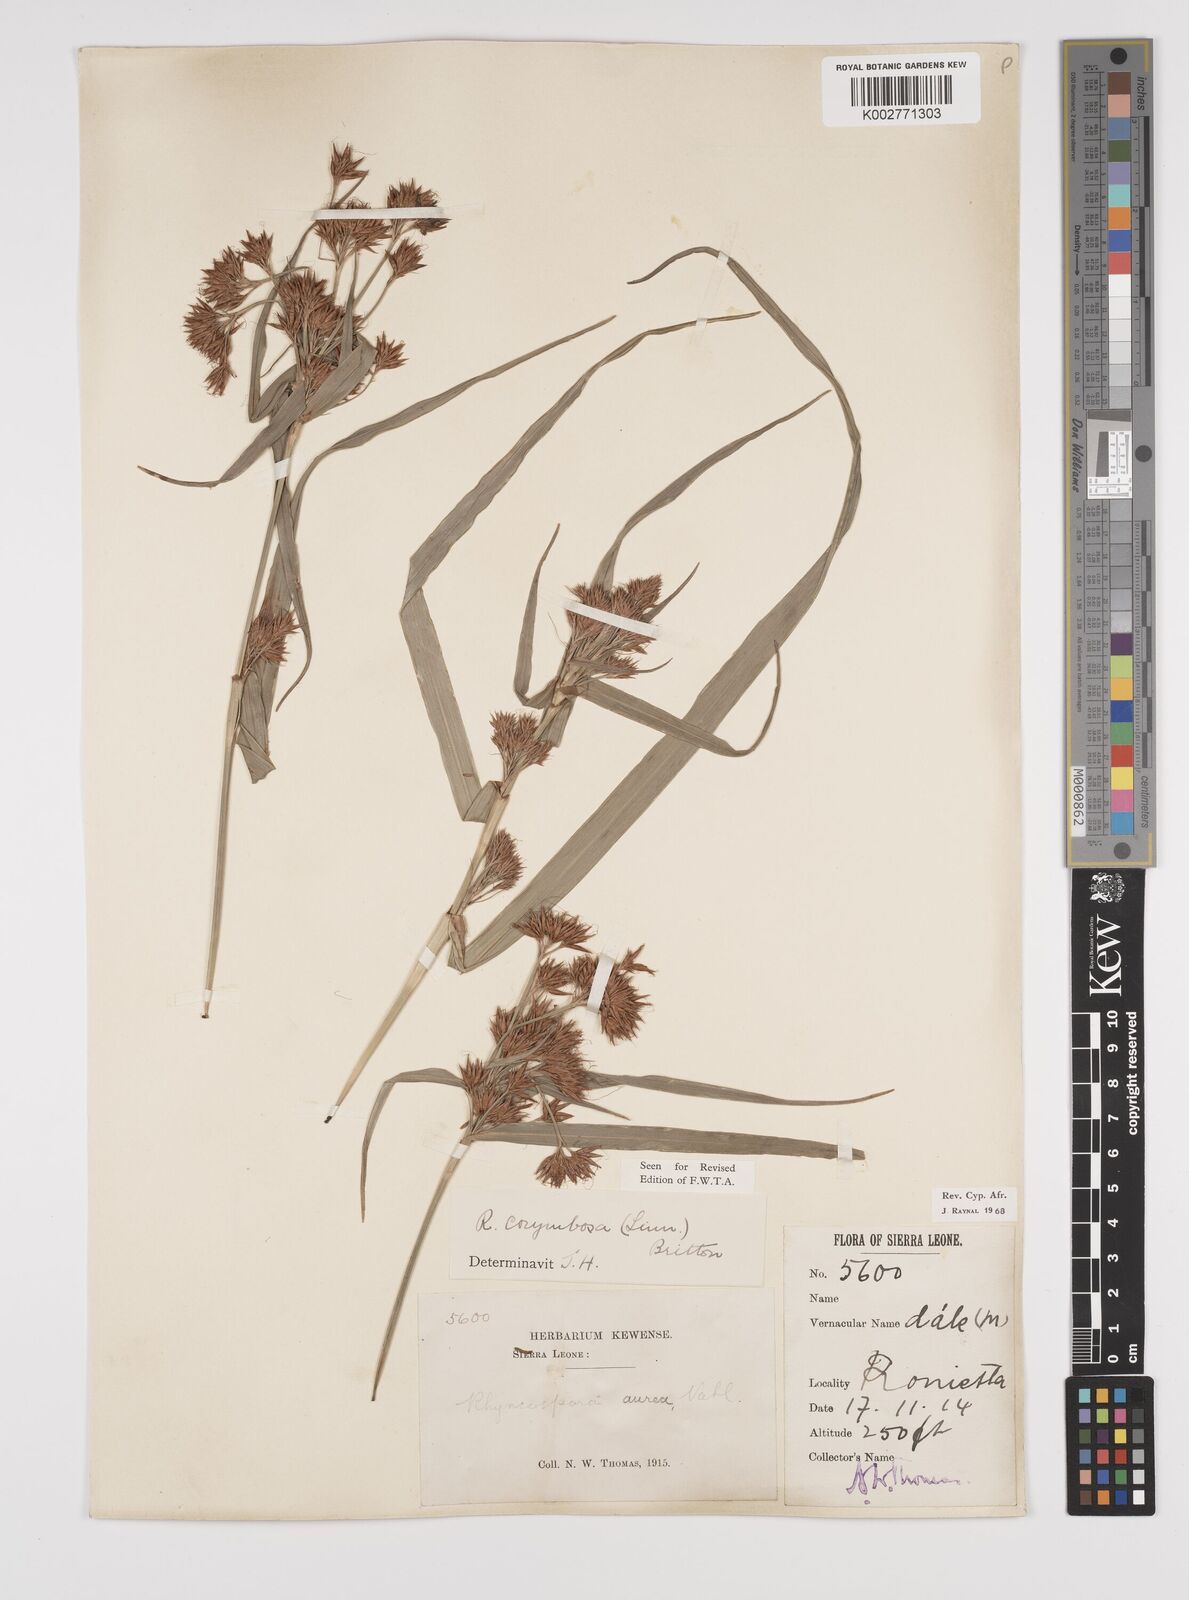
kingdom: Plantae
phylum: Tracheophyta
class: Liliopsida
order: Poales
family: Cyperaceae
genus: Rhynchospora
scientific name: Rhynchospora corymbosa
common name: Golden beak sedge
